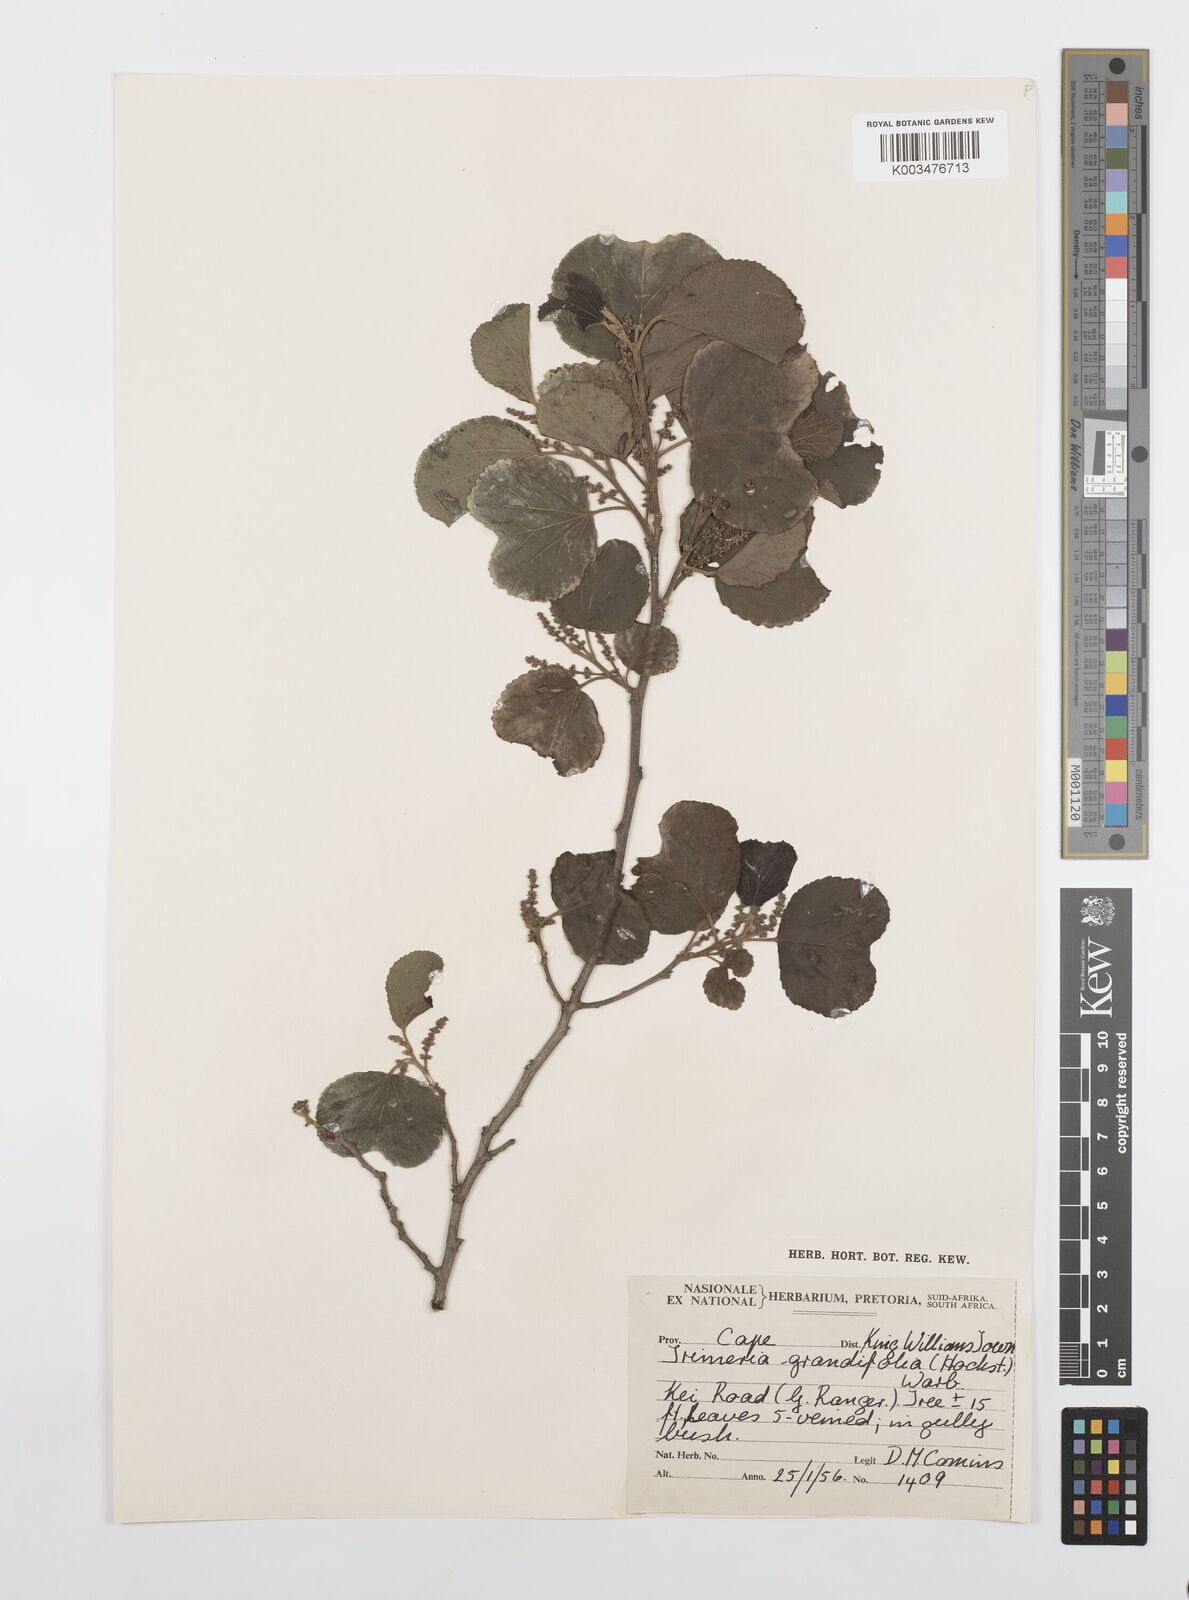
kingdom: Plantae
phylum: Tracheophyta
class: Magnoliopsida
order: Malpighiales
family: Salicaceae
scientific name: Salicaceae
